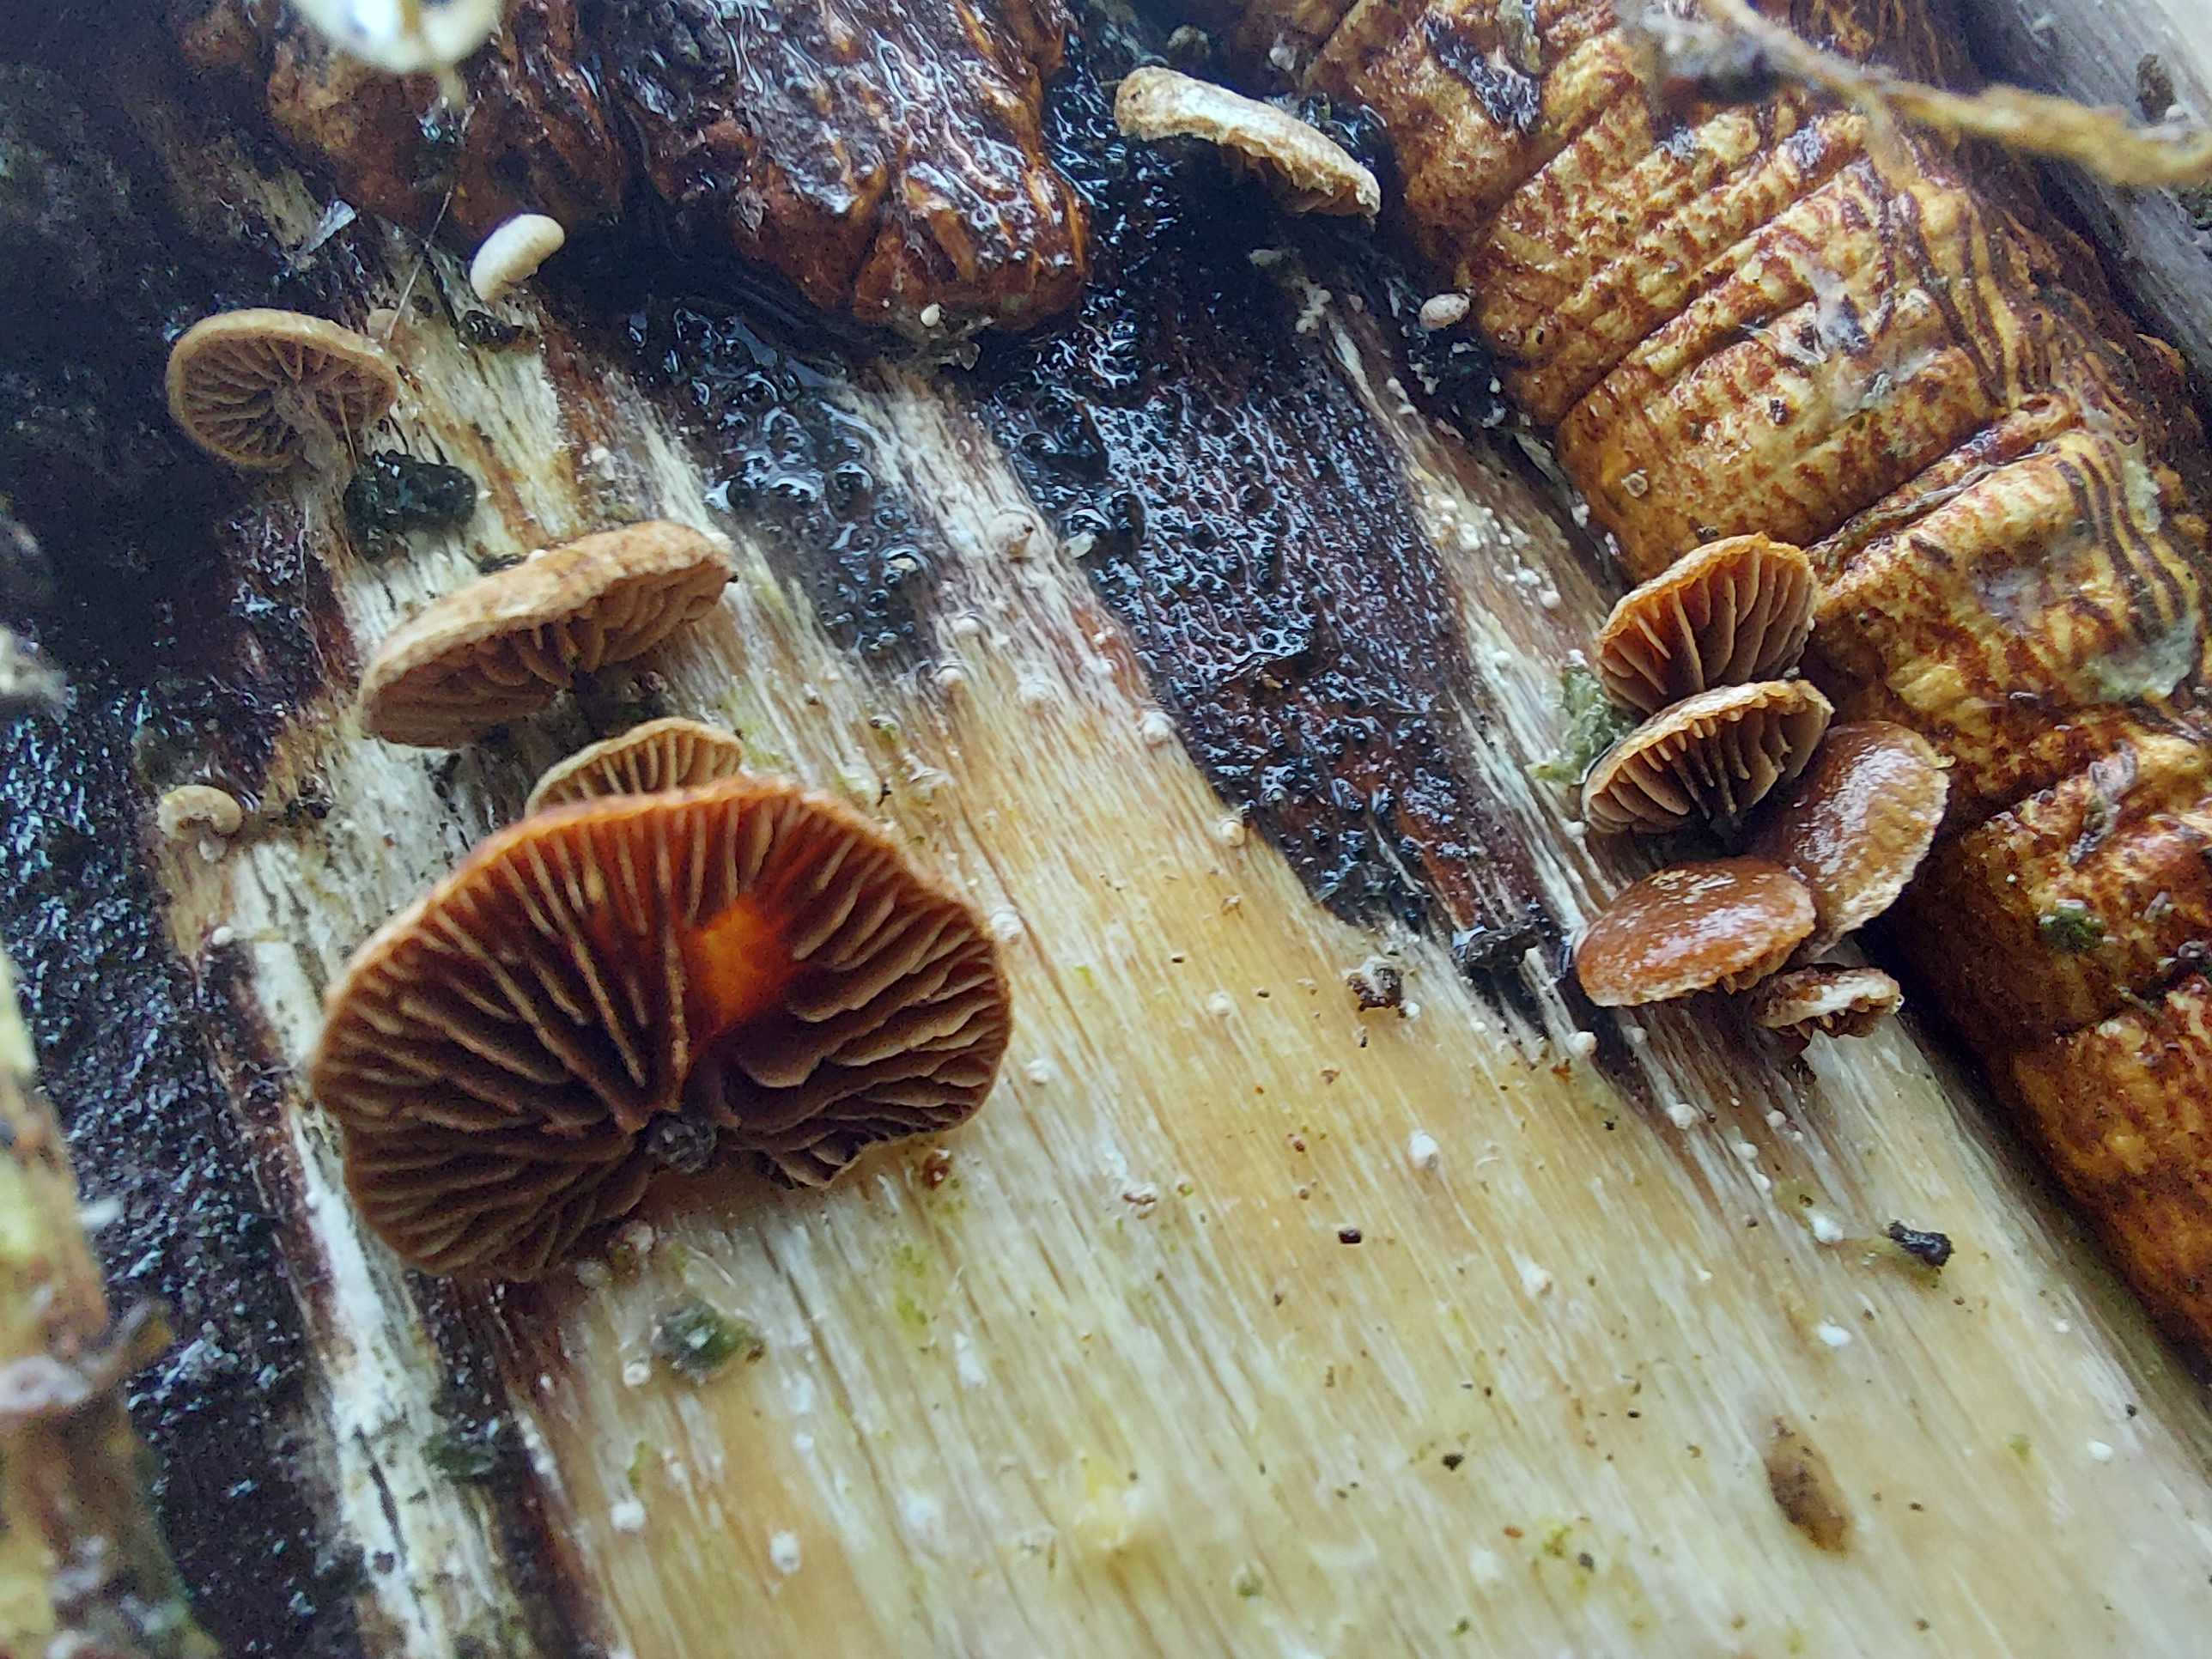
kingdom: Fungi
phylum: Basidiomycota
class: Agaricomycetes
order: Agaricales
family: Strophariaceae
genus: Deconica
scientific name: Deconica horizontalis
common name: ved-stråhat
